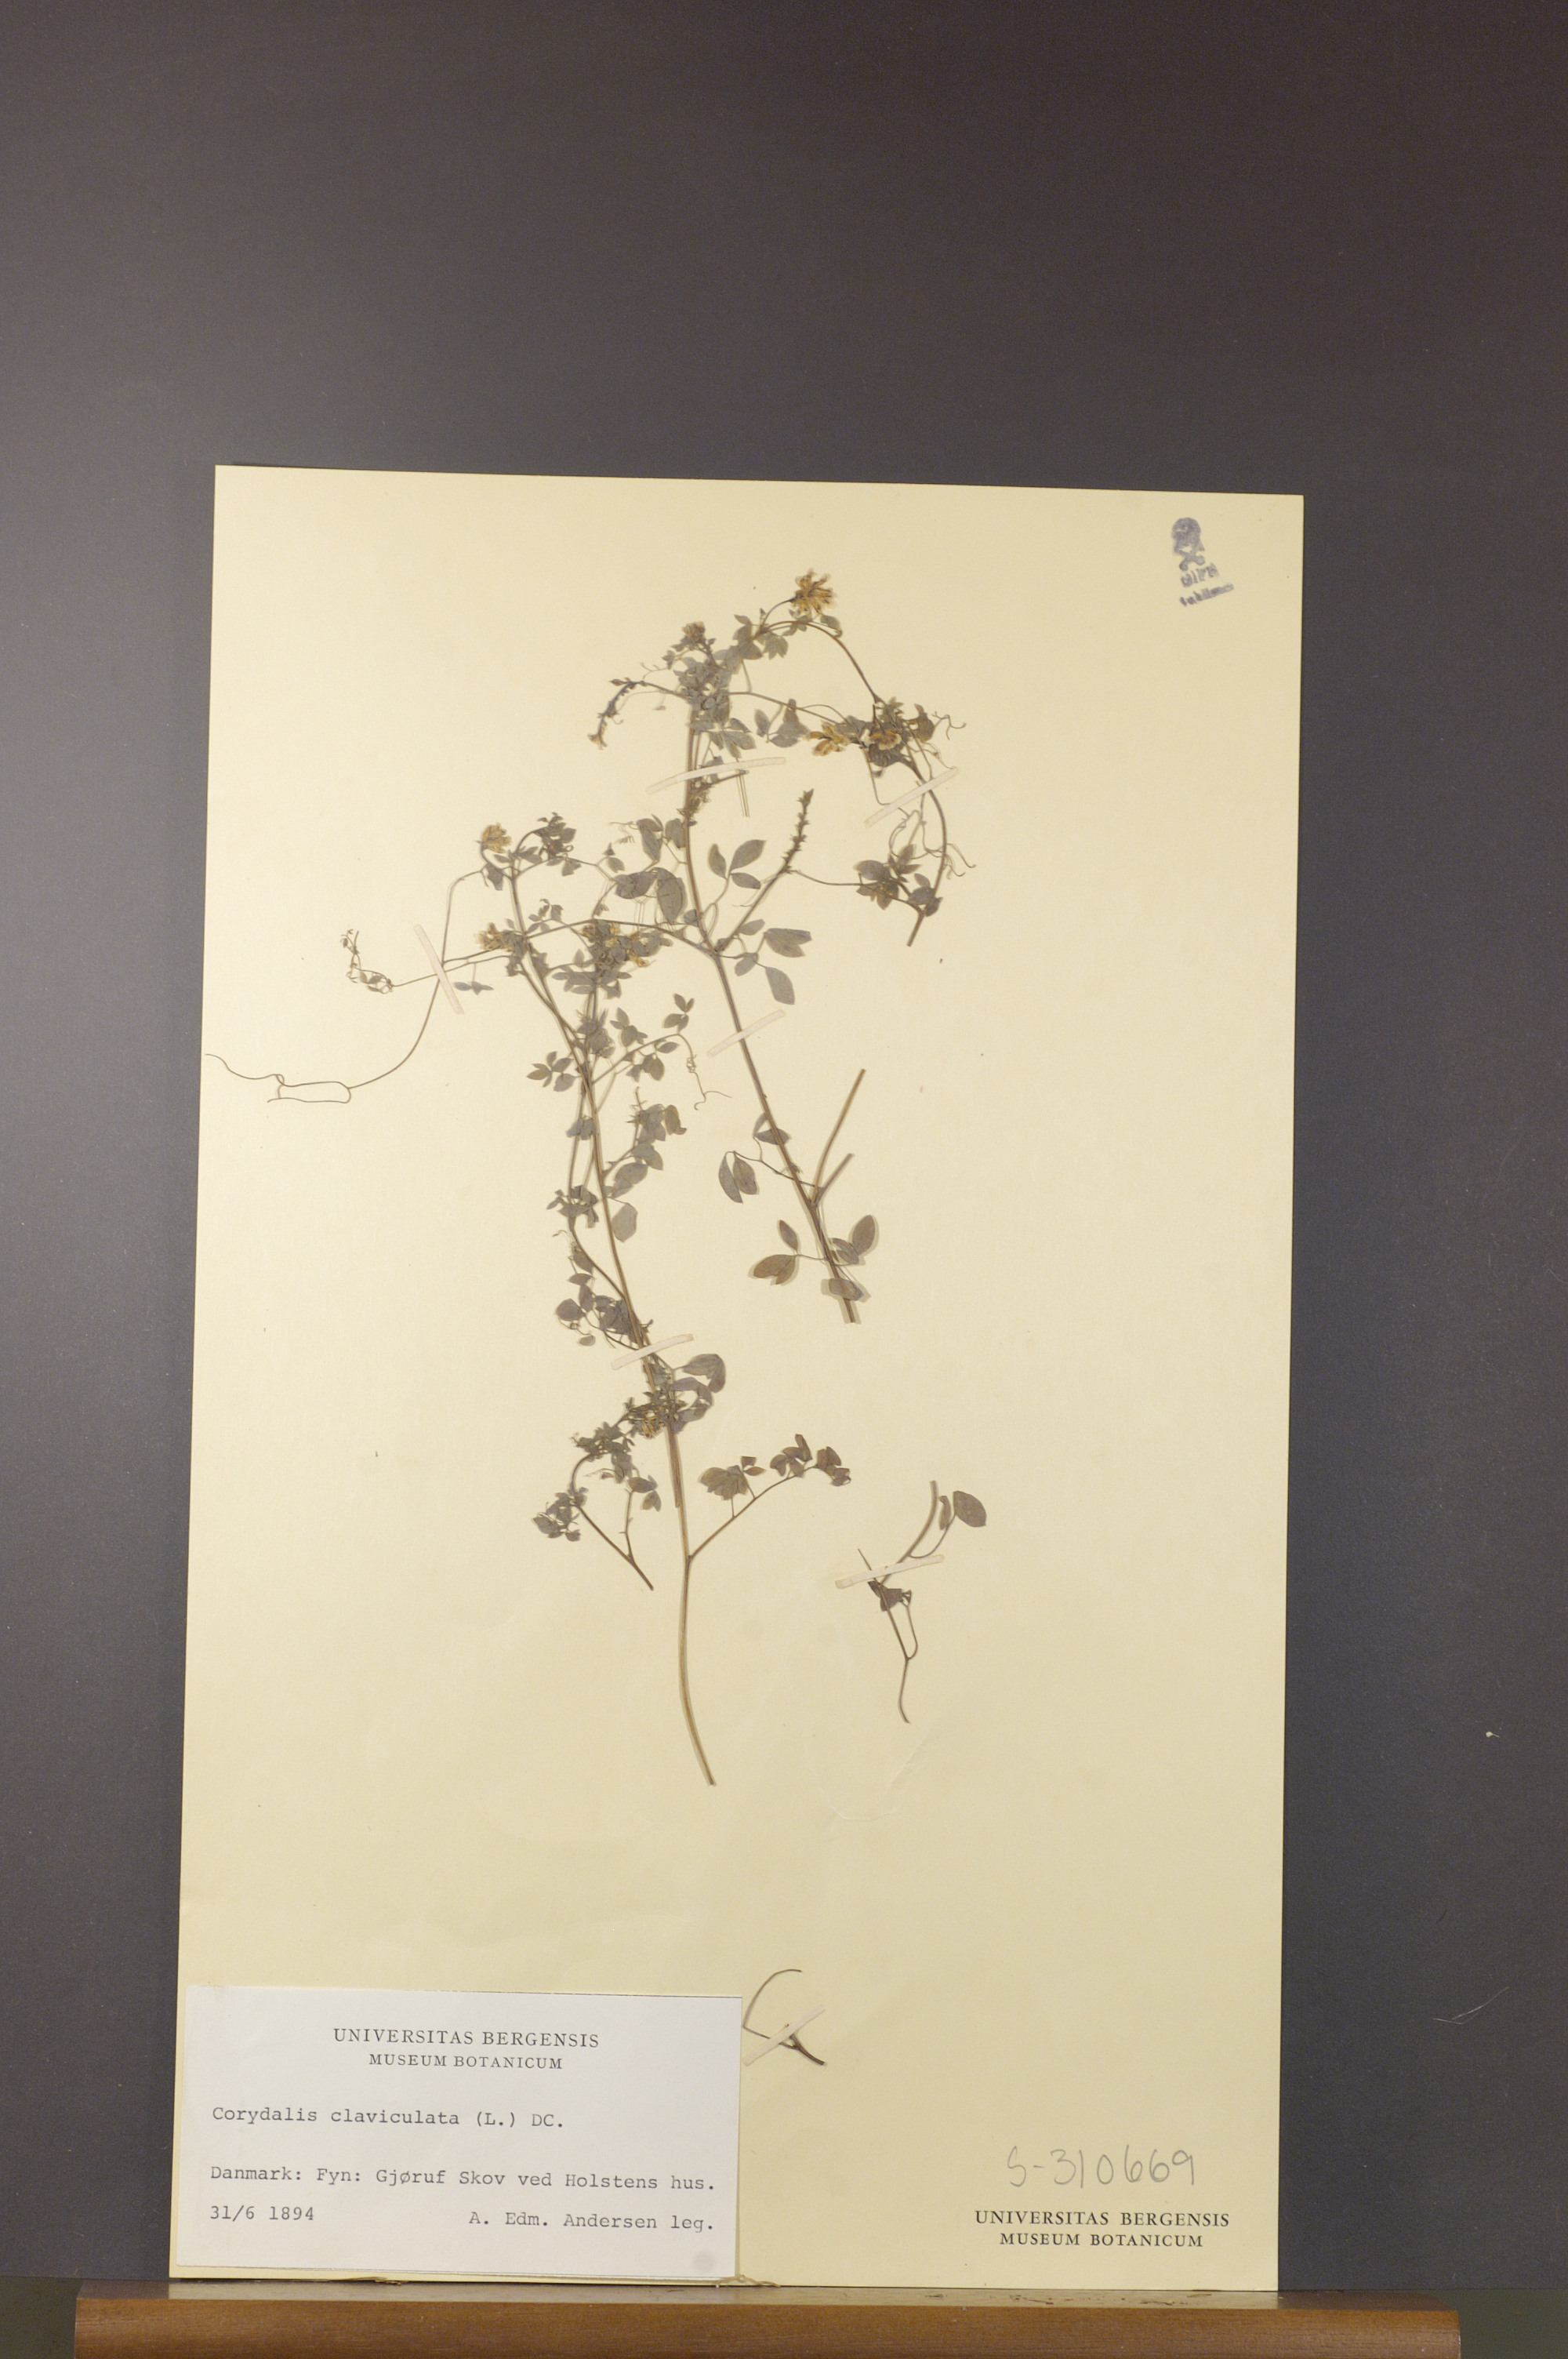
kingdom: Plantae
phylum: Tracheophyta
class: Magnoliopsida
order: Ranunculales
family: Papaveraceae
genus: Ceratocapnos
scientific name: Ceratocapnos claviculata
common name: Climbing corydalis
